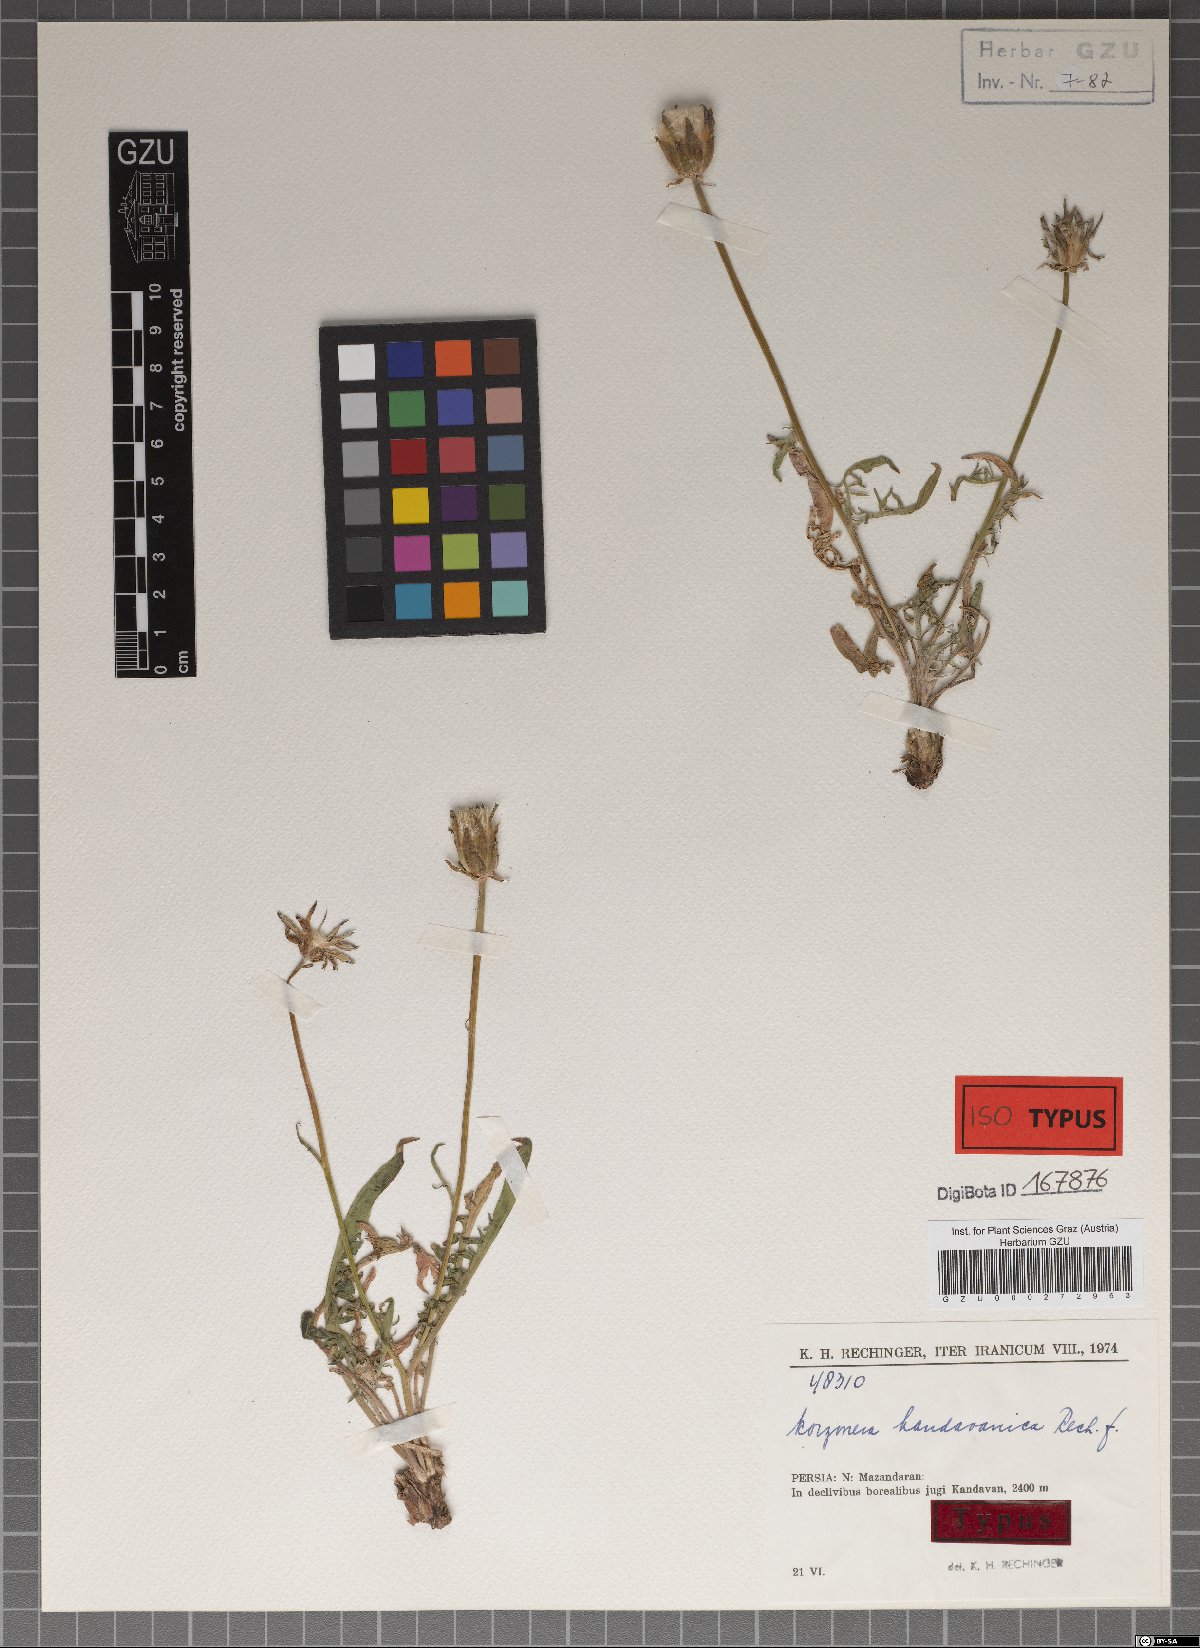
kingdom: Plantae
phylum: Tracheophyta
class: Magnoliopsida
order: Asterales
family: Asteraceae
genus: Scorzonera
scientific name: Scorzonera kandavanica
